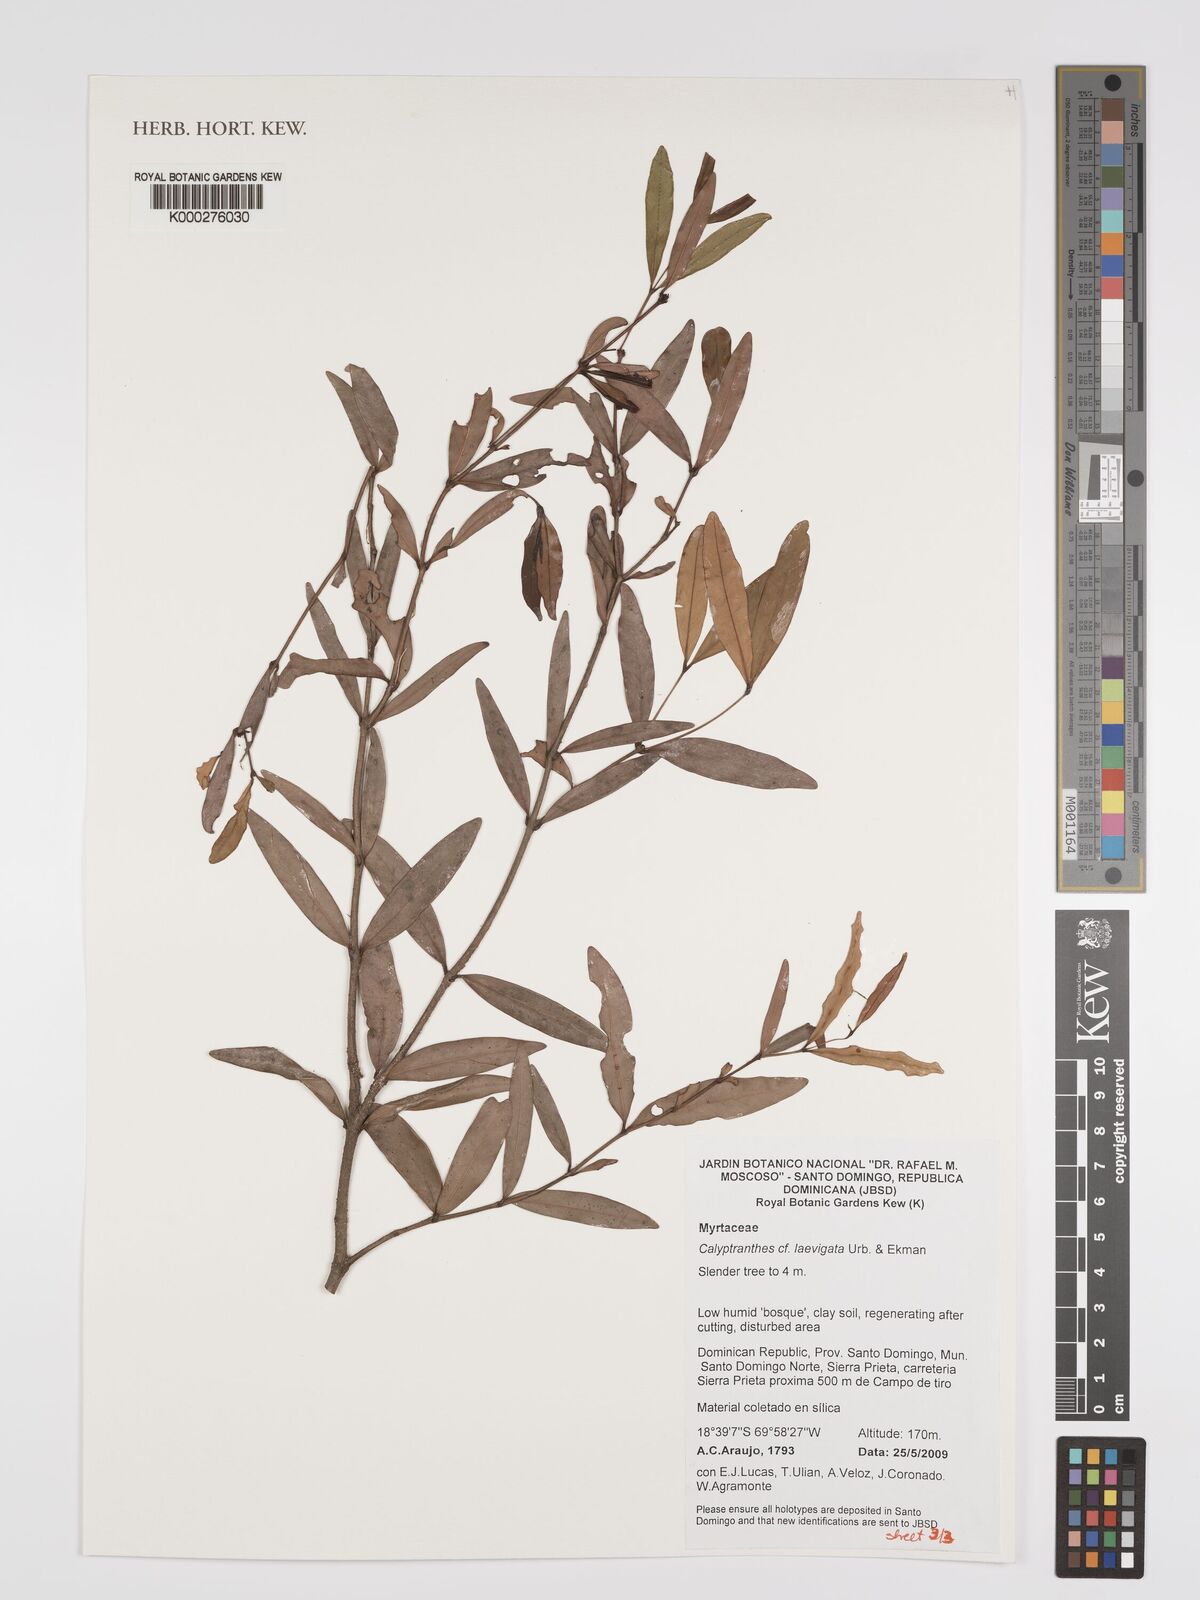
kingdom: Plantae
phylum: Tracheophyta
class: Magnoliopsida
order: Myrtales
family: Myrtaceae
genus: Myrcia
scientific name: Myrcia neolaevigata
